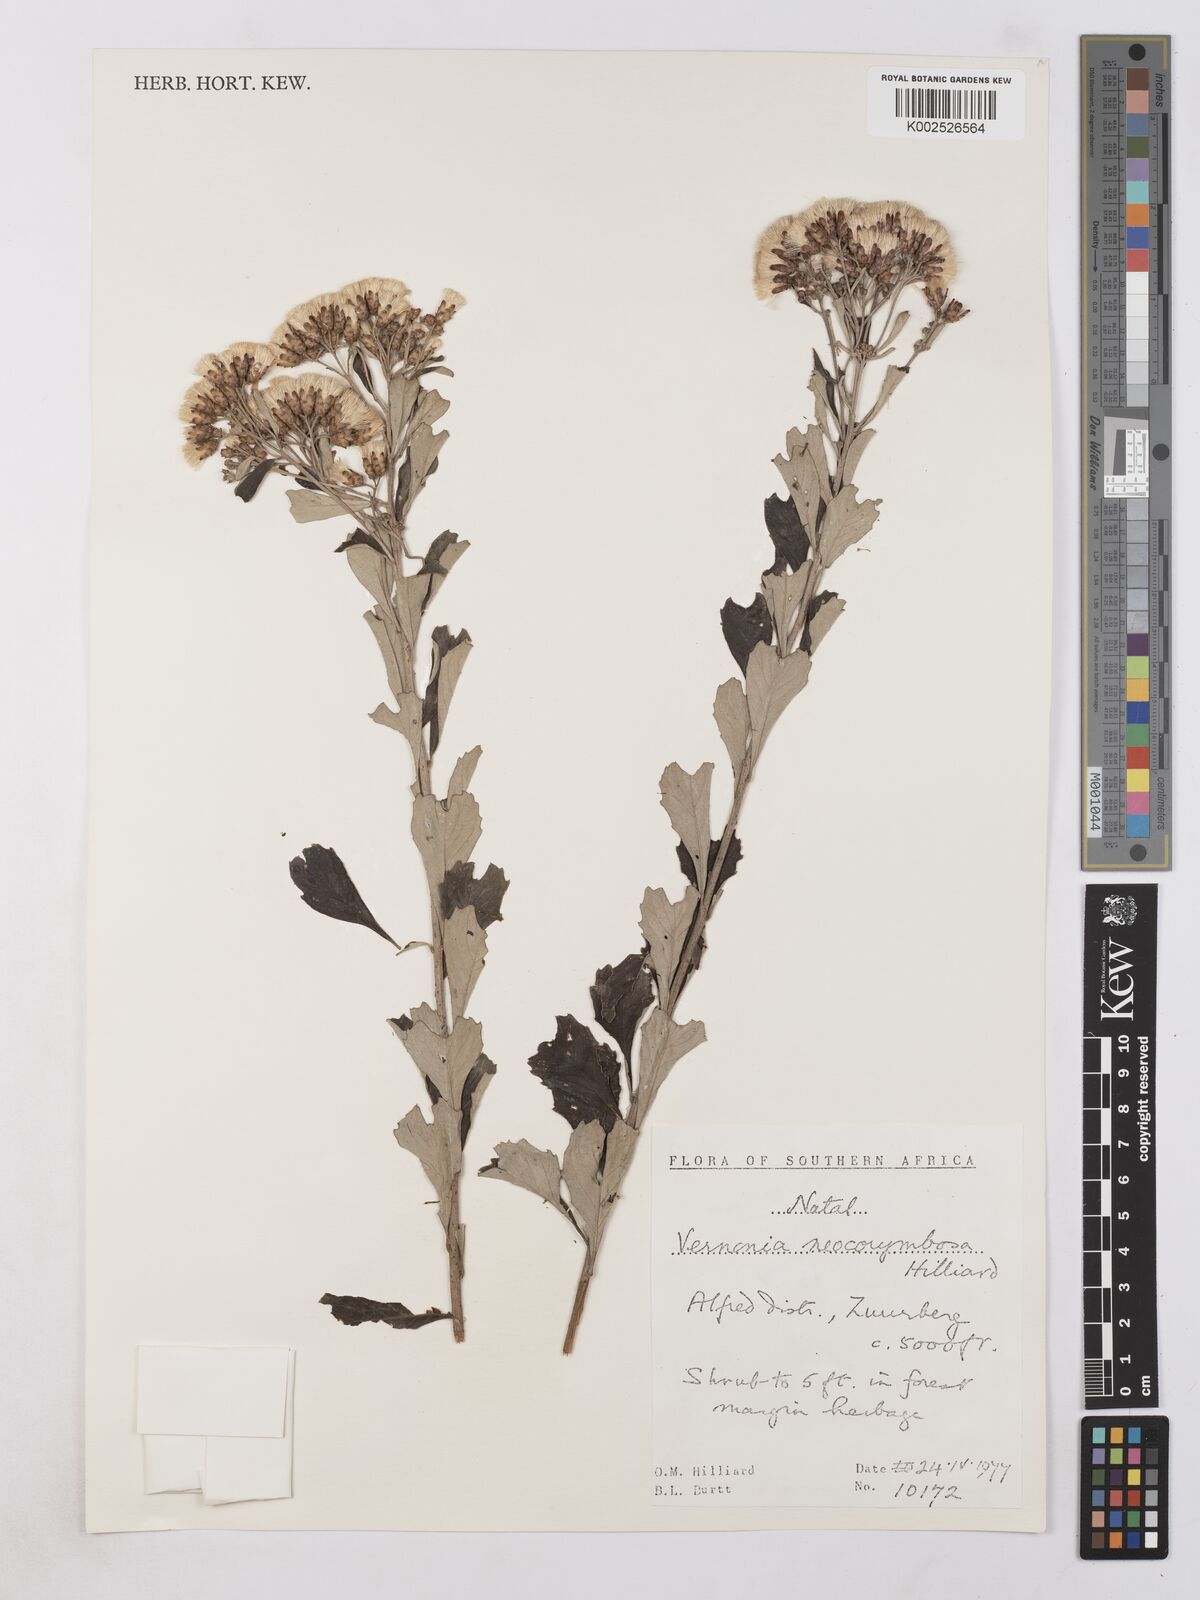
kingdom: Plantae
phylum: Tracheophyta
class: Magnoliopsida
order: Asterales
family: Asteraceae
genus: Gymnanthemum
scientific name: Gymnanthemum corymbosum
